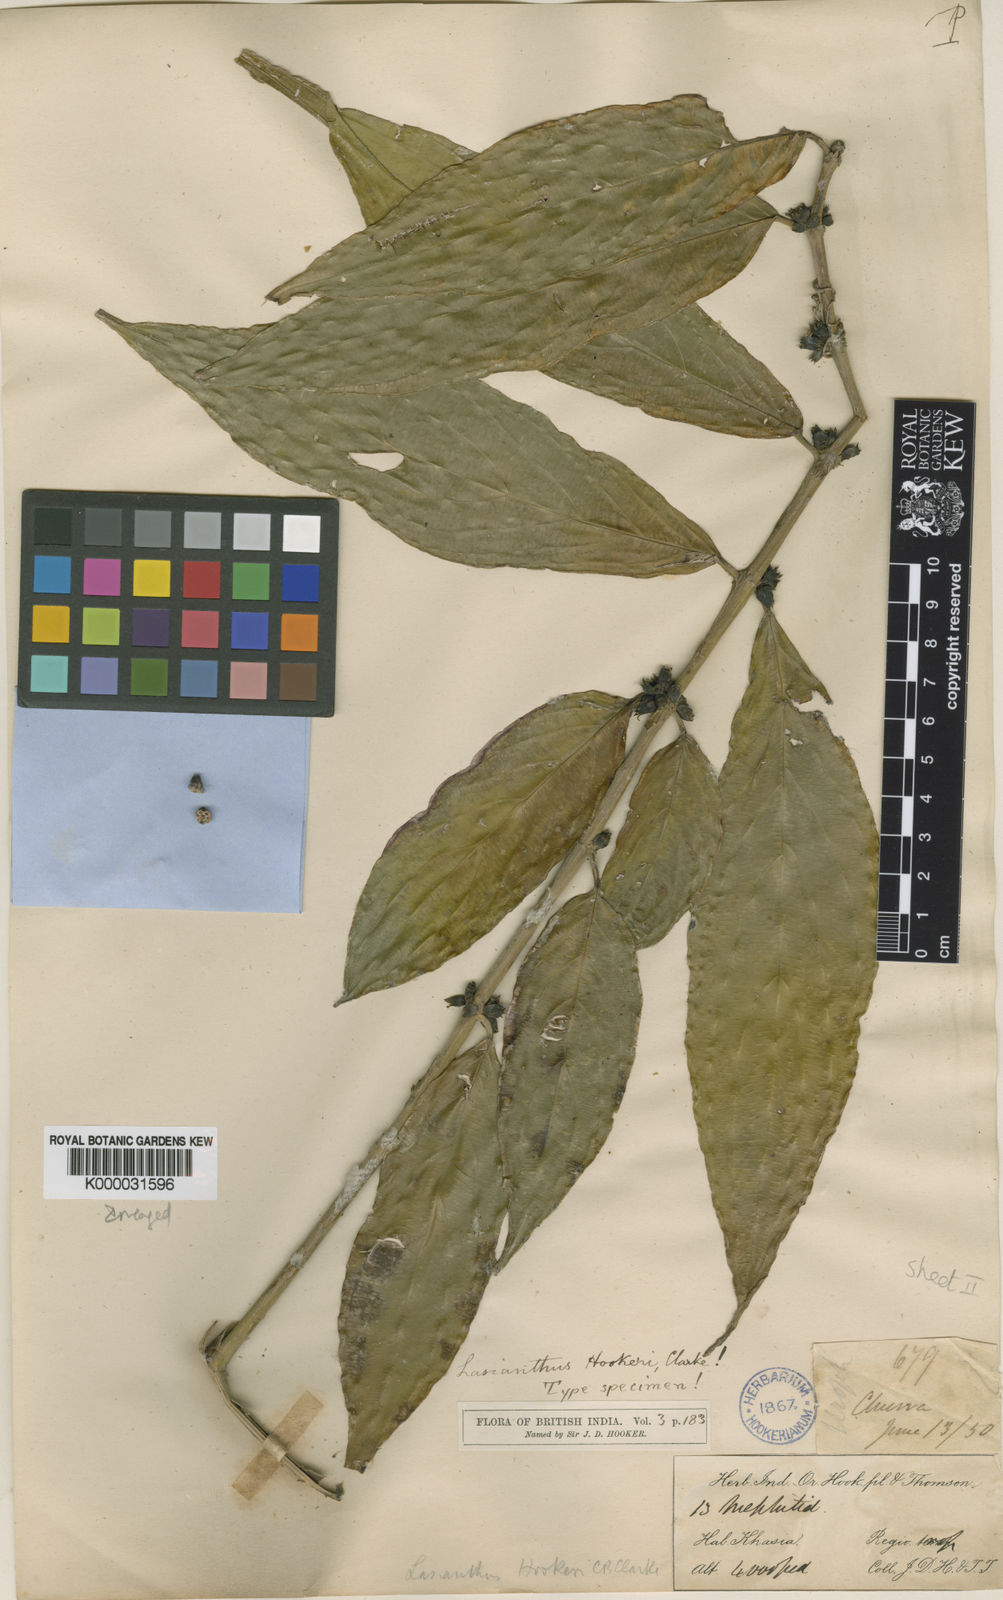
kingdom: Plantae
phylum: Tracheophyta
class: Magnoliopsida
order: Gentianales
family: Rubiaceae
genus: Lasianthus
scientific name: Lasianthus
